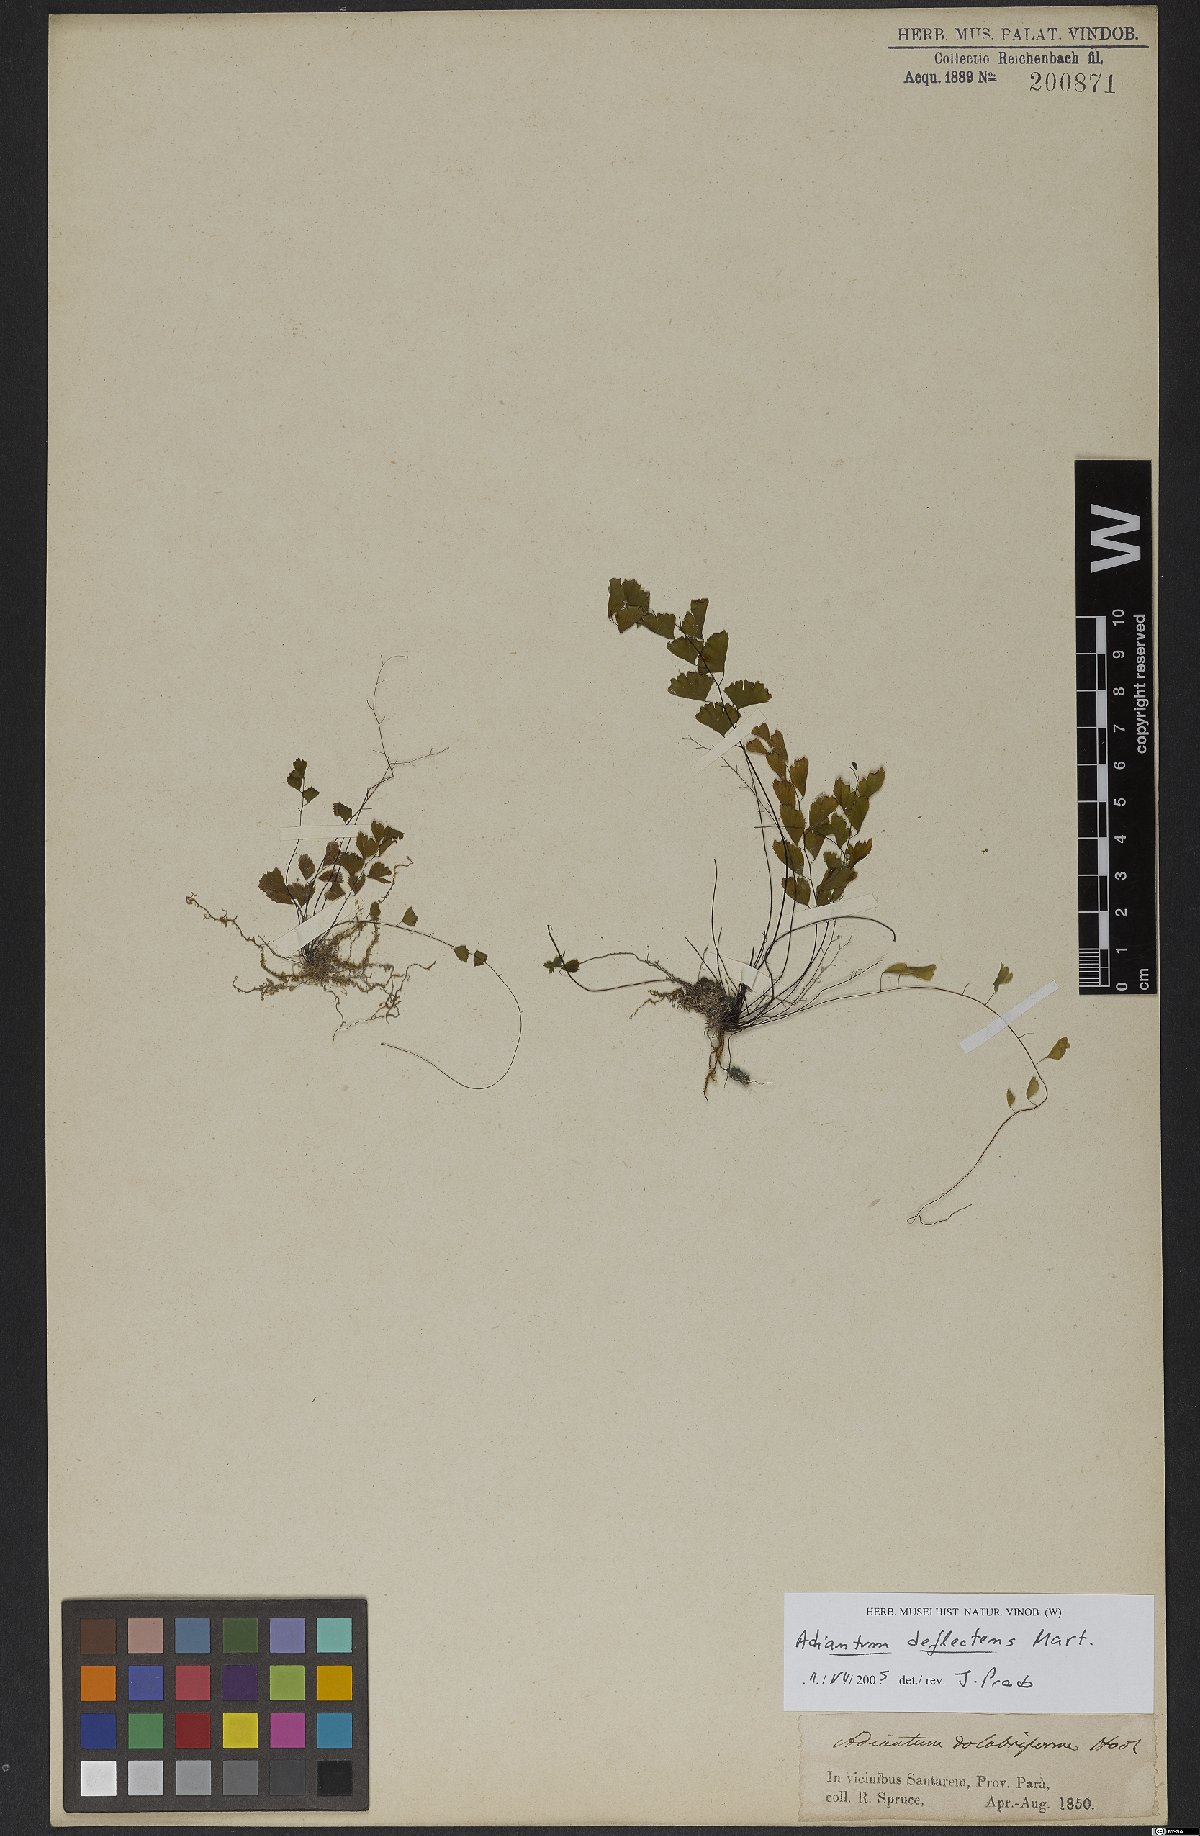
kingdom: Plantae
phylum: Tracheophyta
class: Polypodiopsida
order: Polypodiales
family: Pteridaceae
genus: Adiantum
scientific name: Adiantum deflectens
